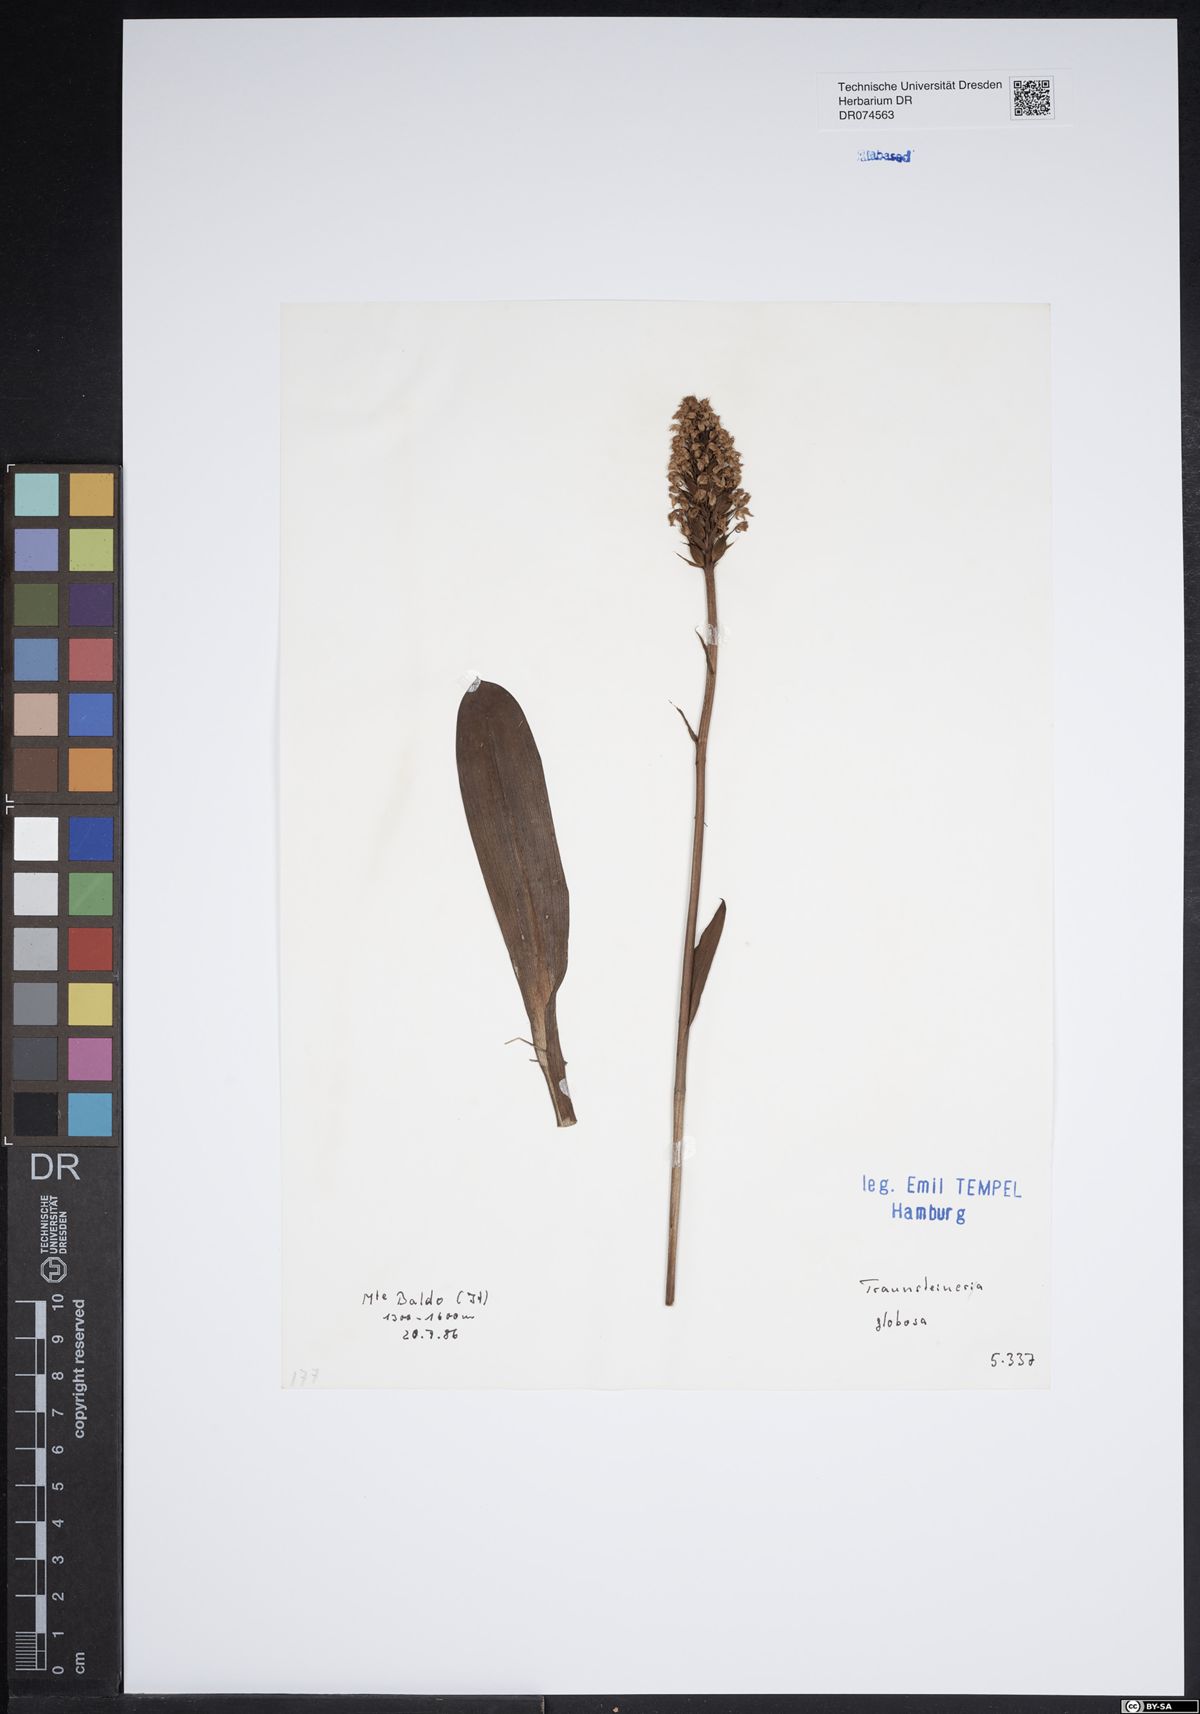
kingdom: Plantae
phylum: Tracheophyta
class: Liliopsida
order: Asparagales
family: Orchidaceae
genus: Traunsteinera
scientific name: Traunsteinera globosa
